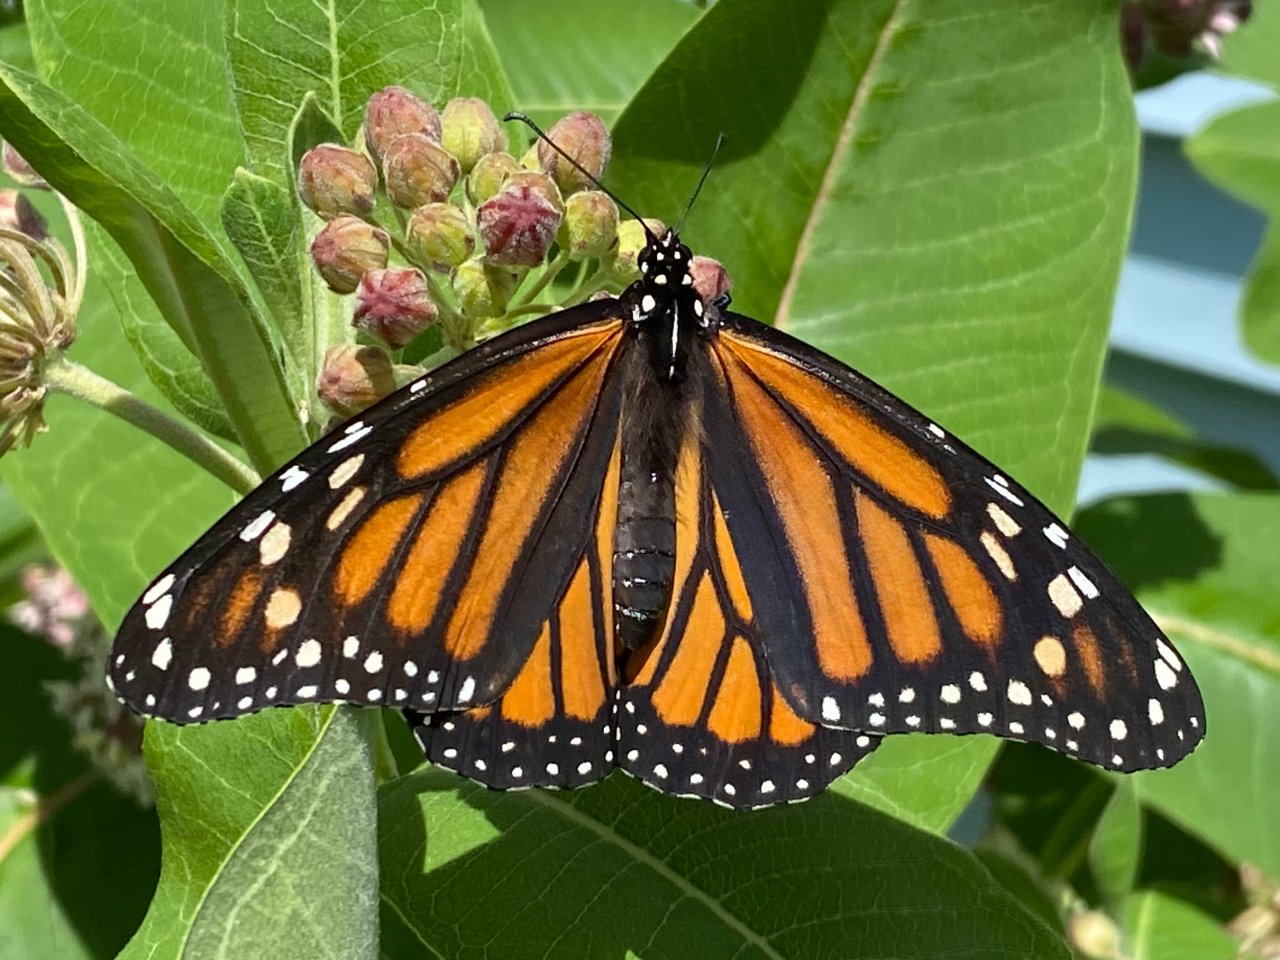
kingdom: Animalia
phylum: Arthropoda
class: Insecta
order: Lepidoptera
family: Nymphalidae
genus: Danaus
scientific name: Danaus plexippus
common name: Monarch
